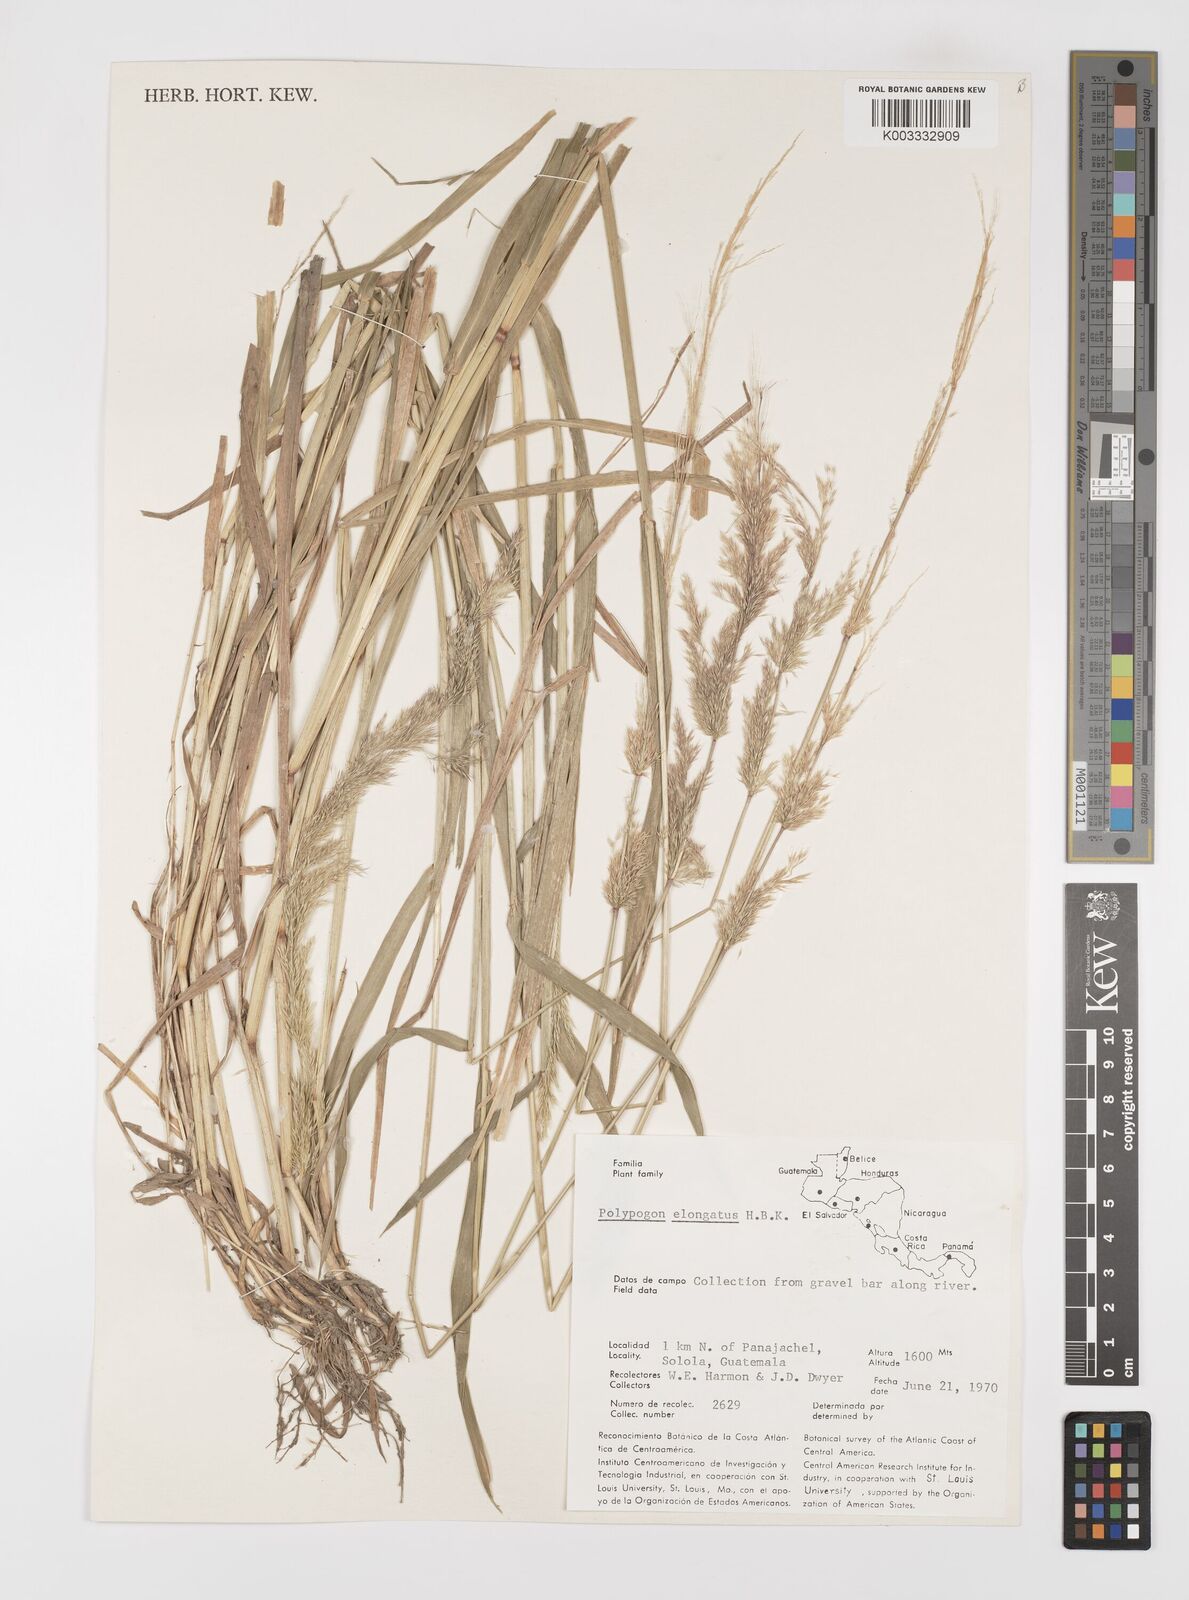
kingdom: Plantae
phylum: Tracheophyta
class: Liliopsida
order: Poales
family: Poaceae
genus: Polypogon
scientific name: Polypogon elongatus
